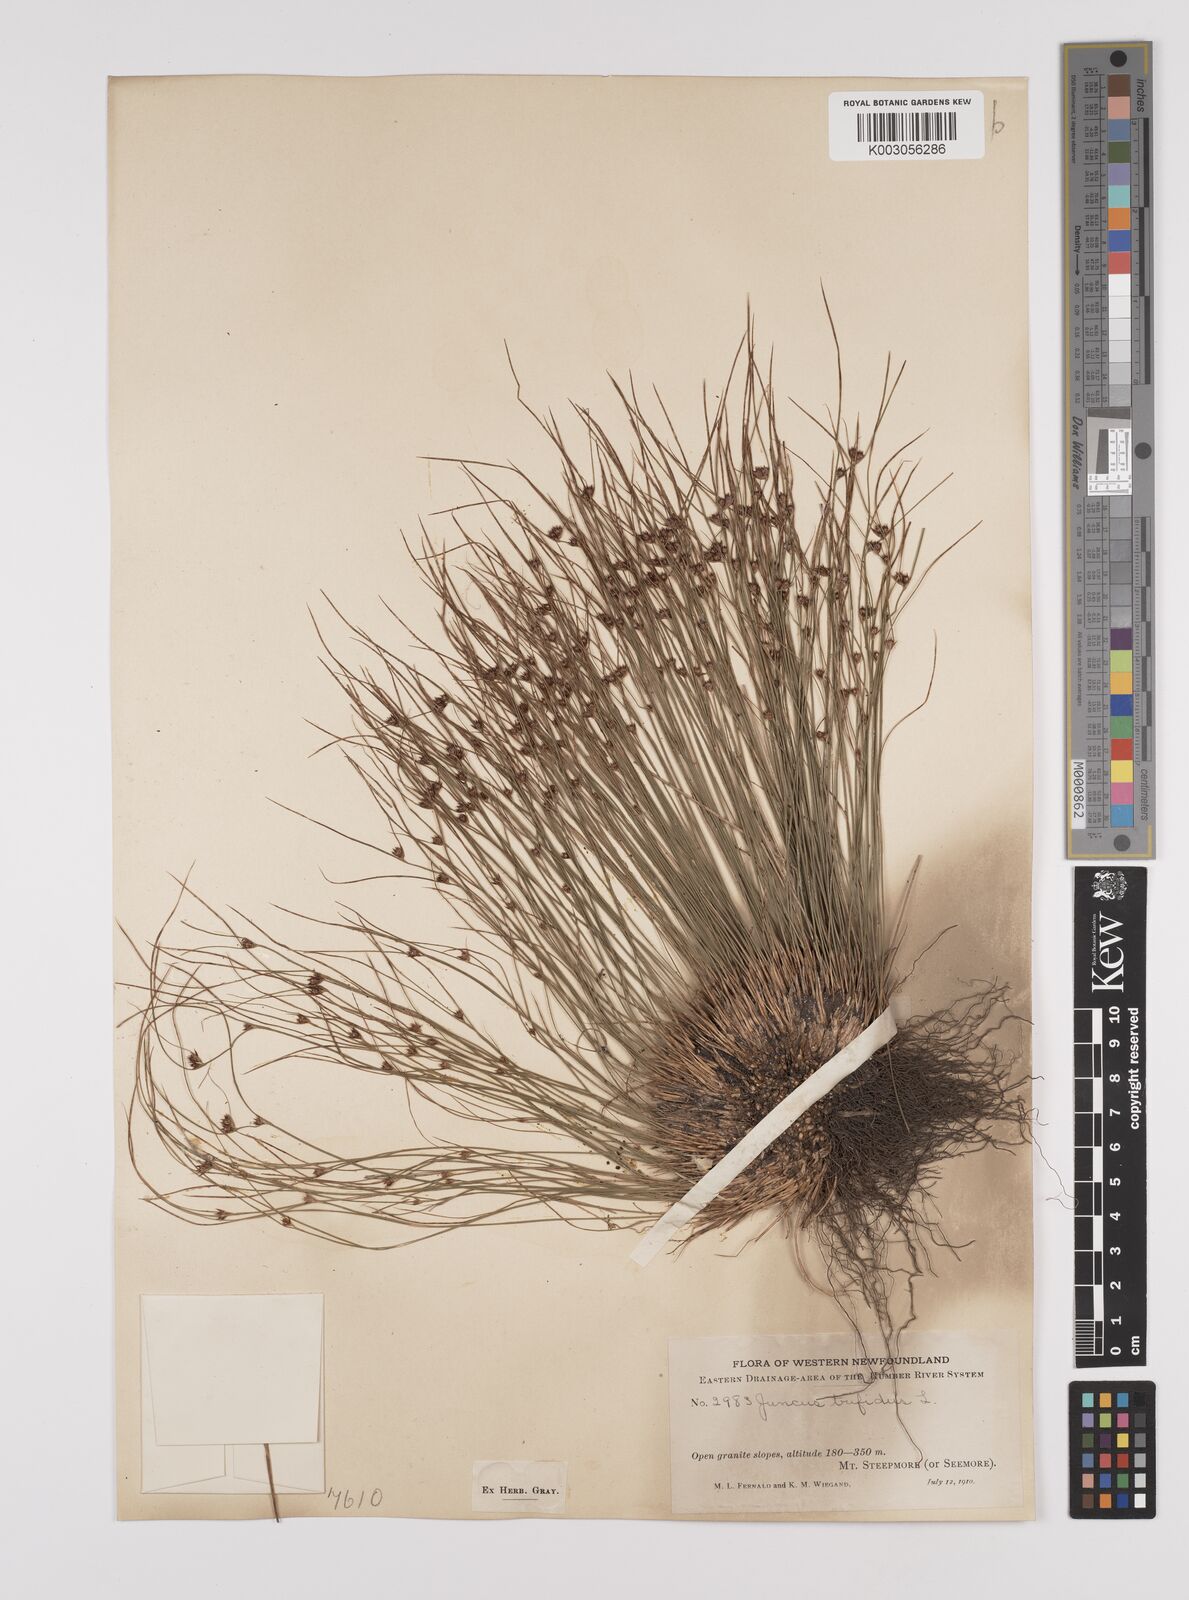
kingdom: Plantae
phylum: Tracheophyta
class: Liliopsida
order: Poales
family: Juncaceae
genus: Oreojuncus
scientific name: Oreojuncus trifidus
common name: Highland rush
